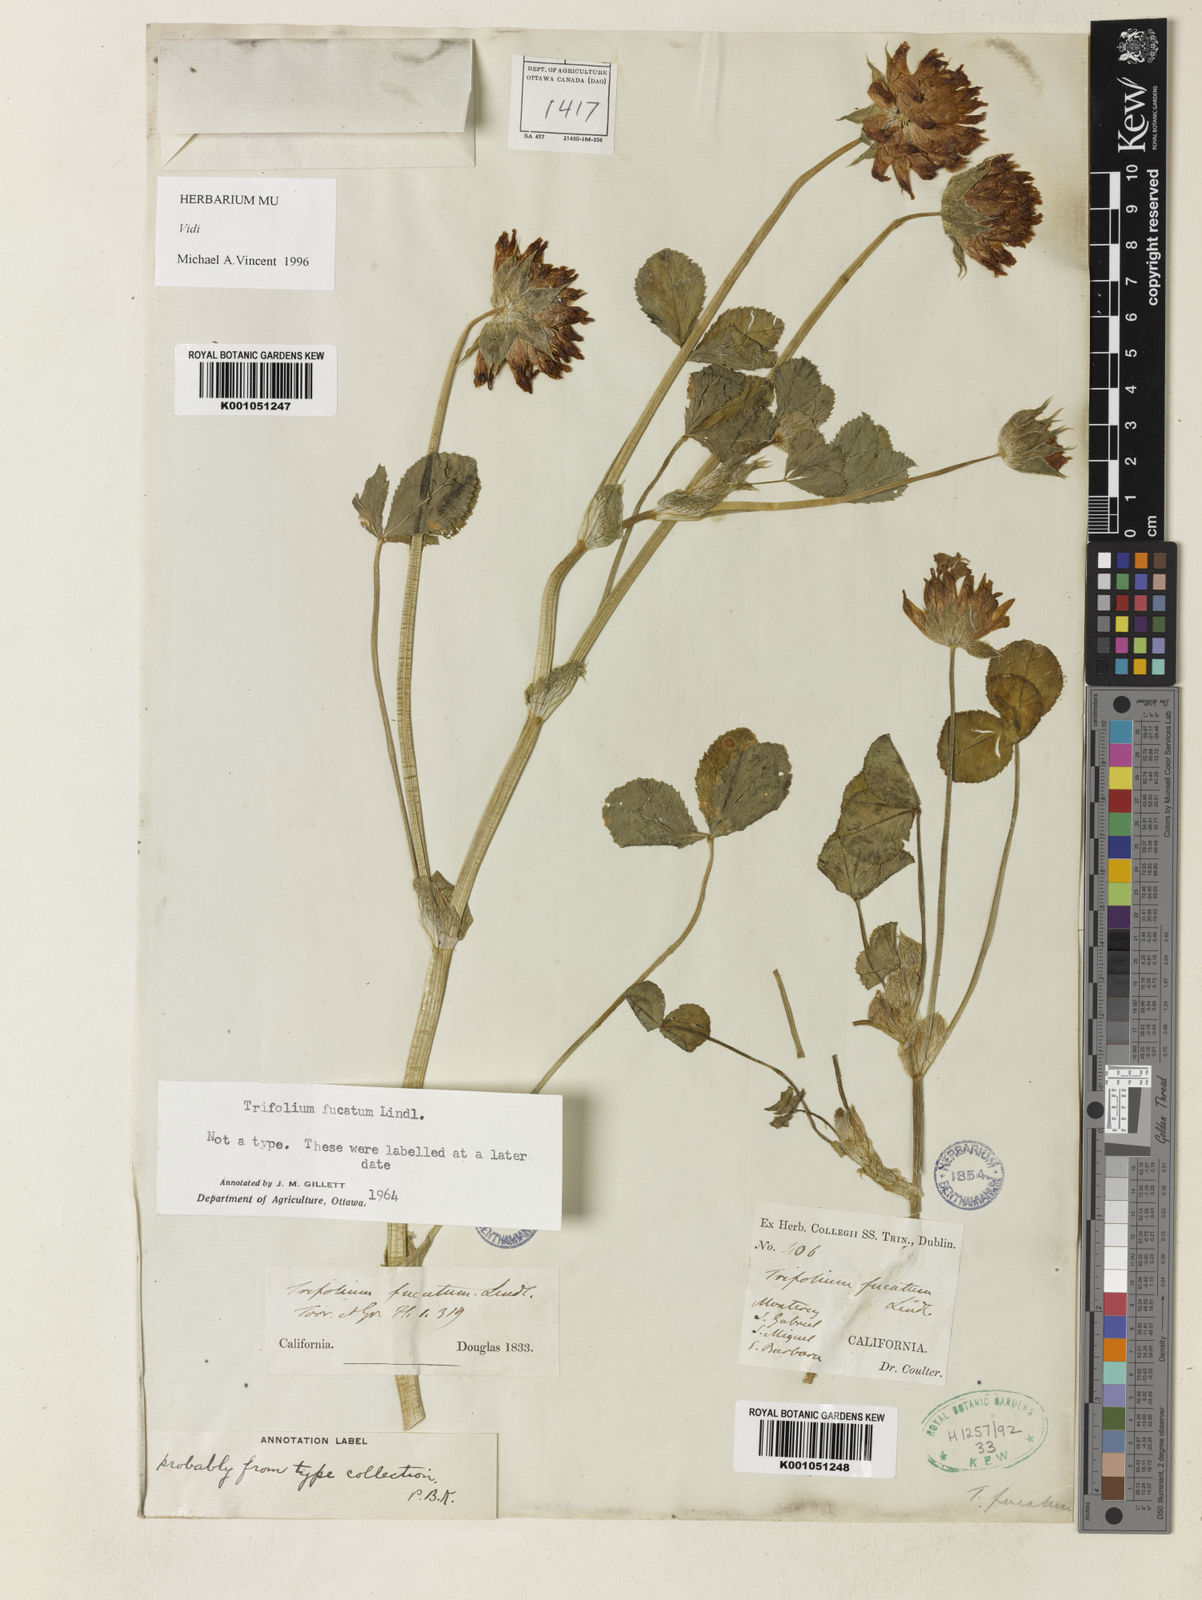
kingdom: Plantae
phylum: Tracheophyta
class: Magnoliopsida
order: Fabales
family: Fabaceae
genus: Trifolium
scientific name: Trifolium fucatum
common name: Puff clover
